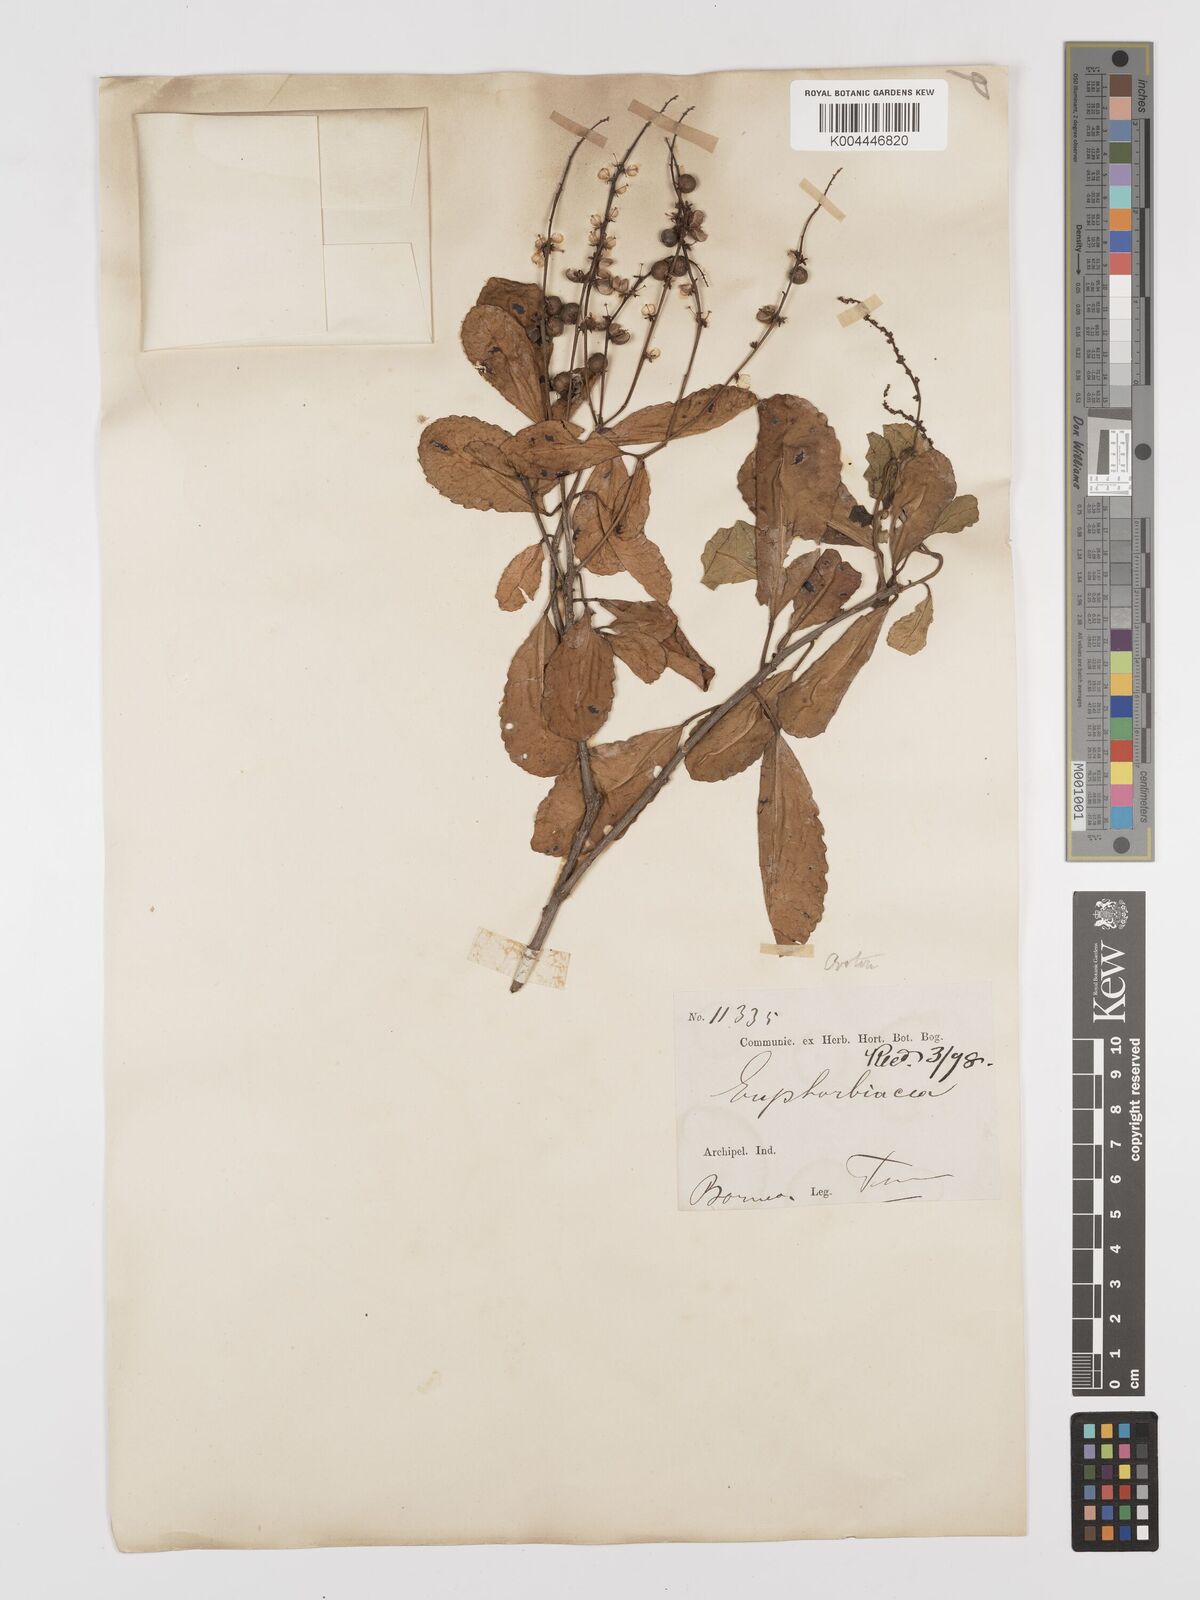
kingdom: Plantae
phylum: Tracheophyta
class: Magnoliopsida
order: Malpighiales
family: Euphorbiaceae
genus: Croton
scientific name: Croton heterocarpus
